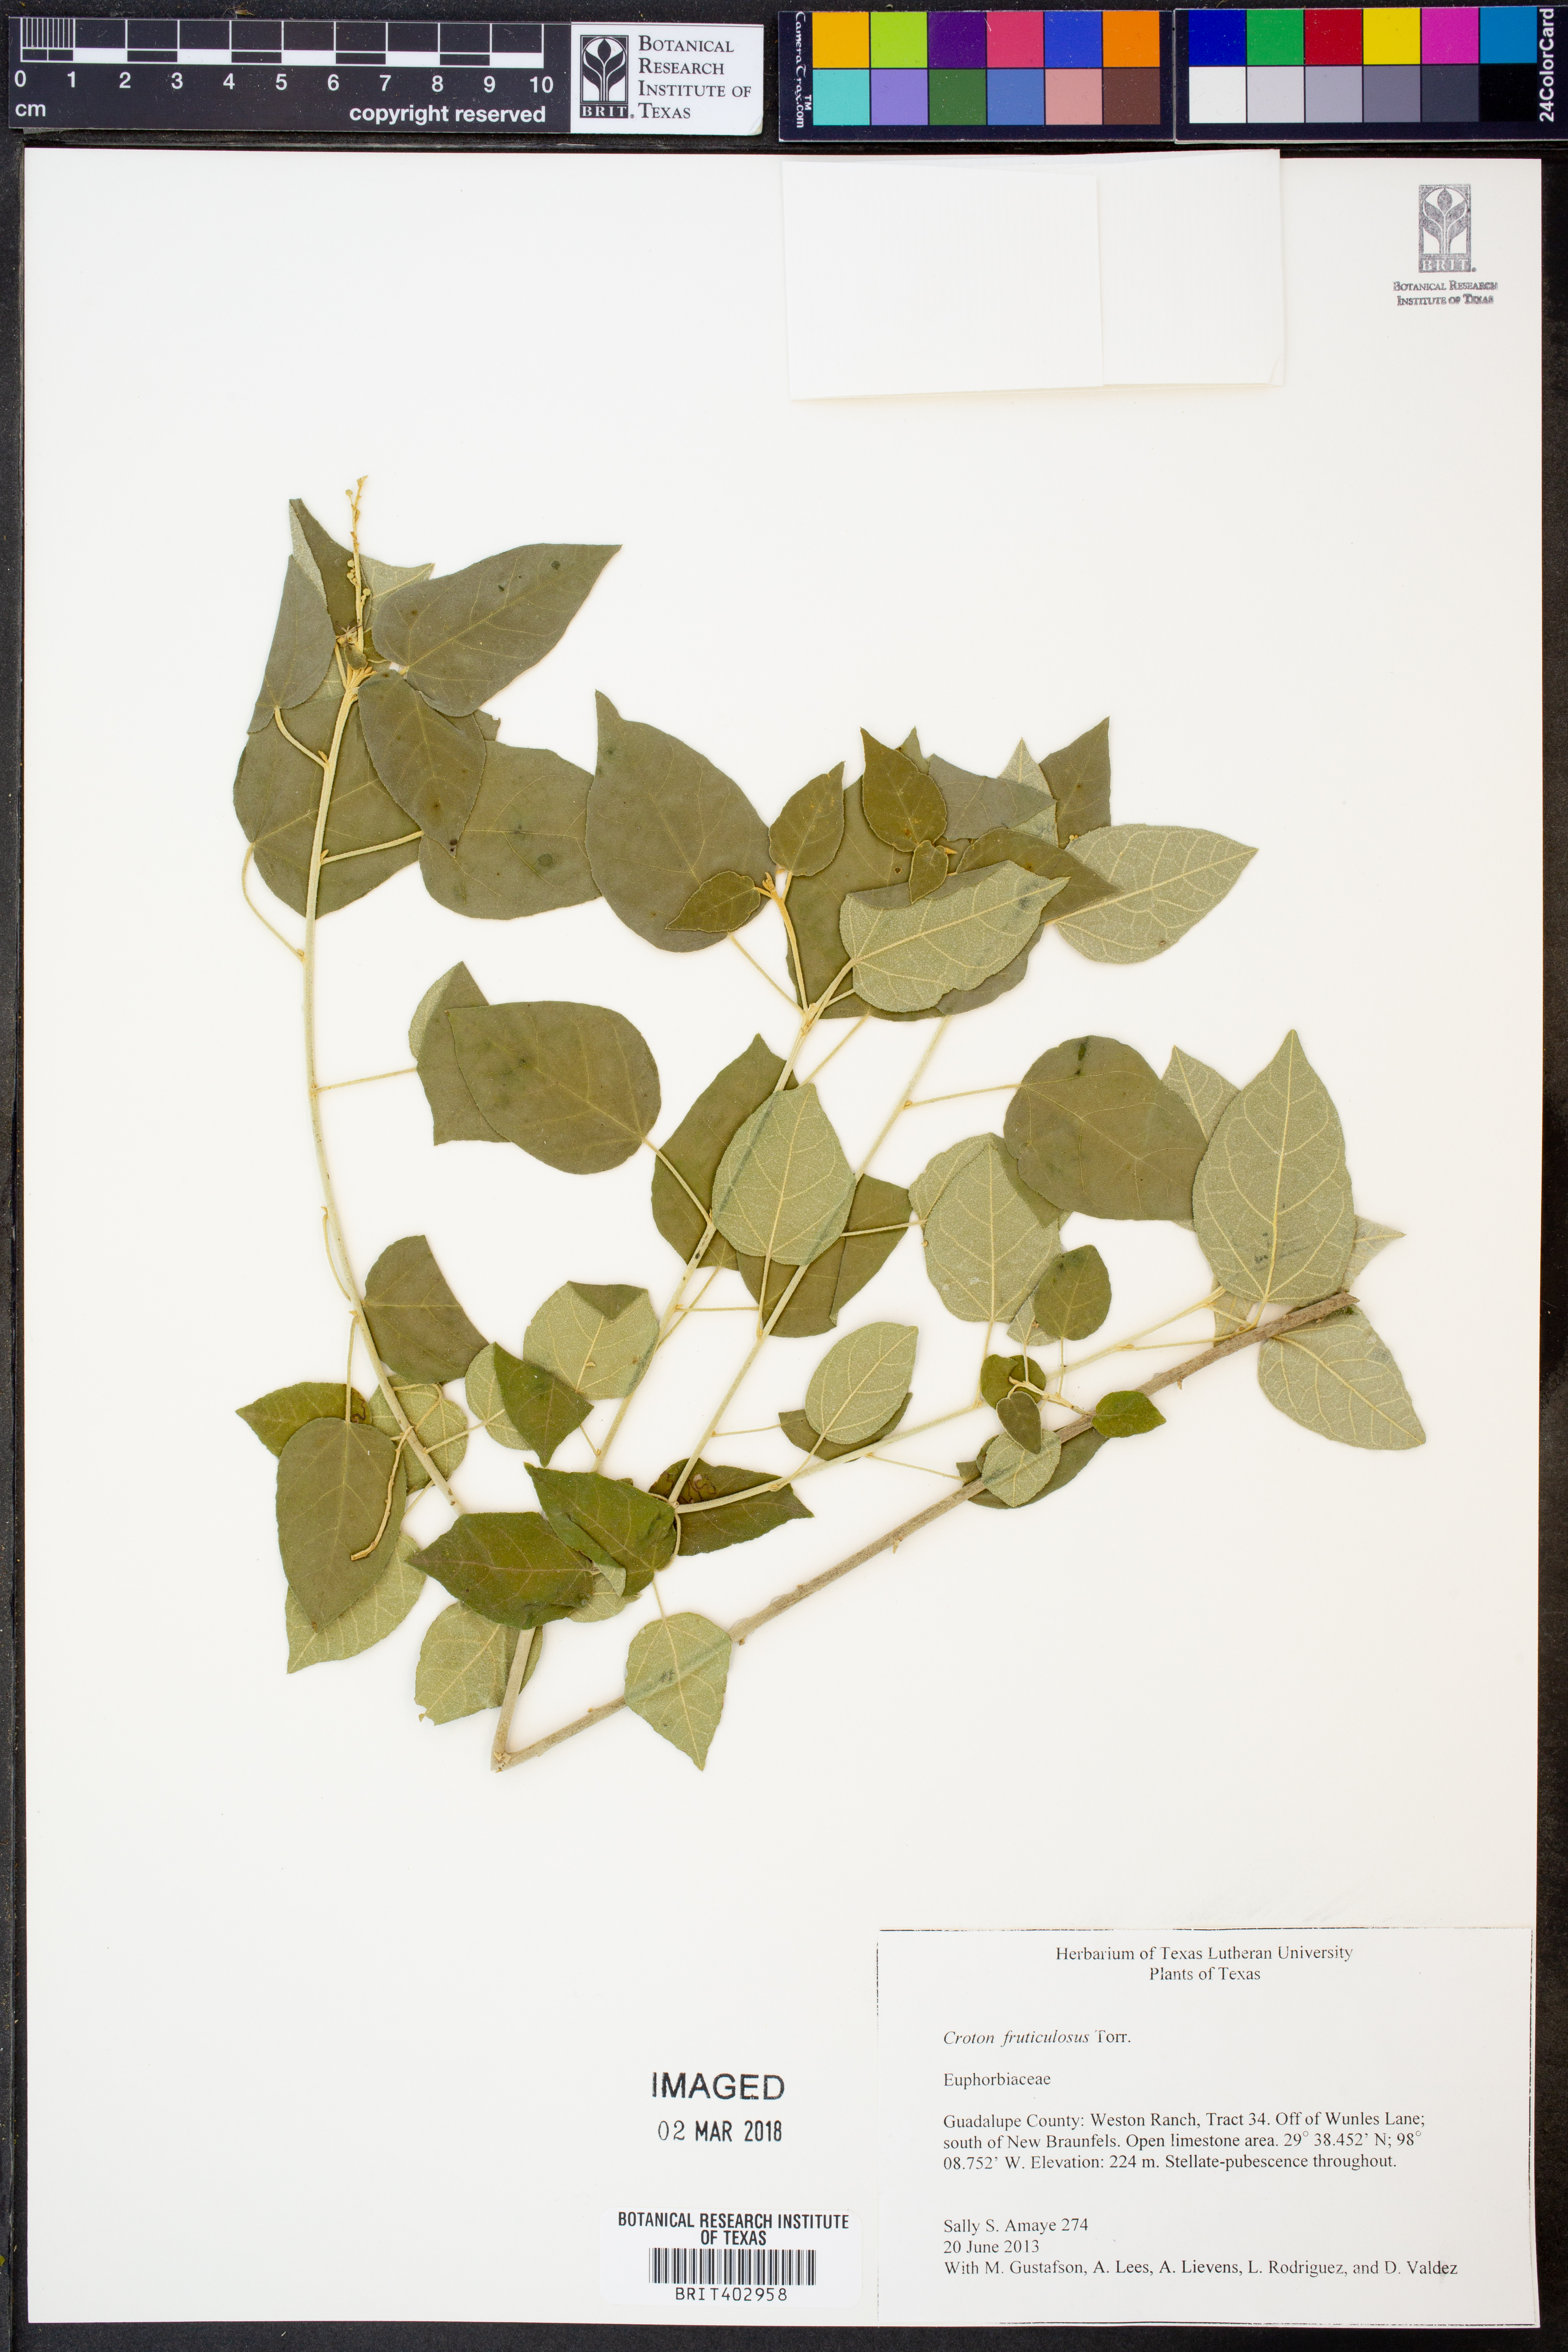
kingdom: Plantae
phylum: Tracheophyta
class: Magnoliopsida
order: Malpighiales
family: Euphorbiaceae
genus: Croton
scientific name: Croton fruticulosus
